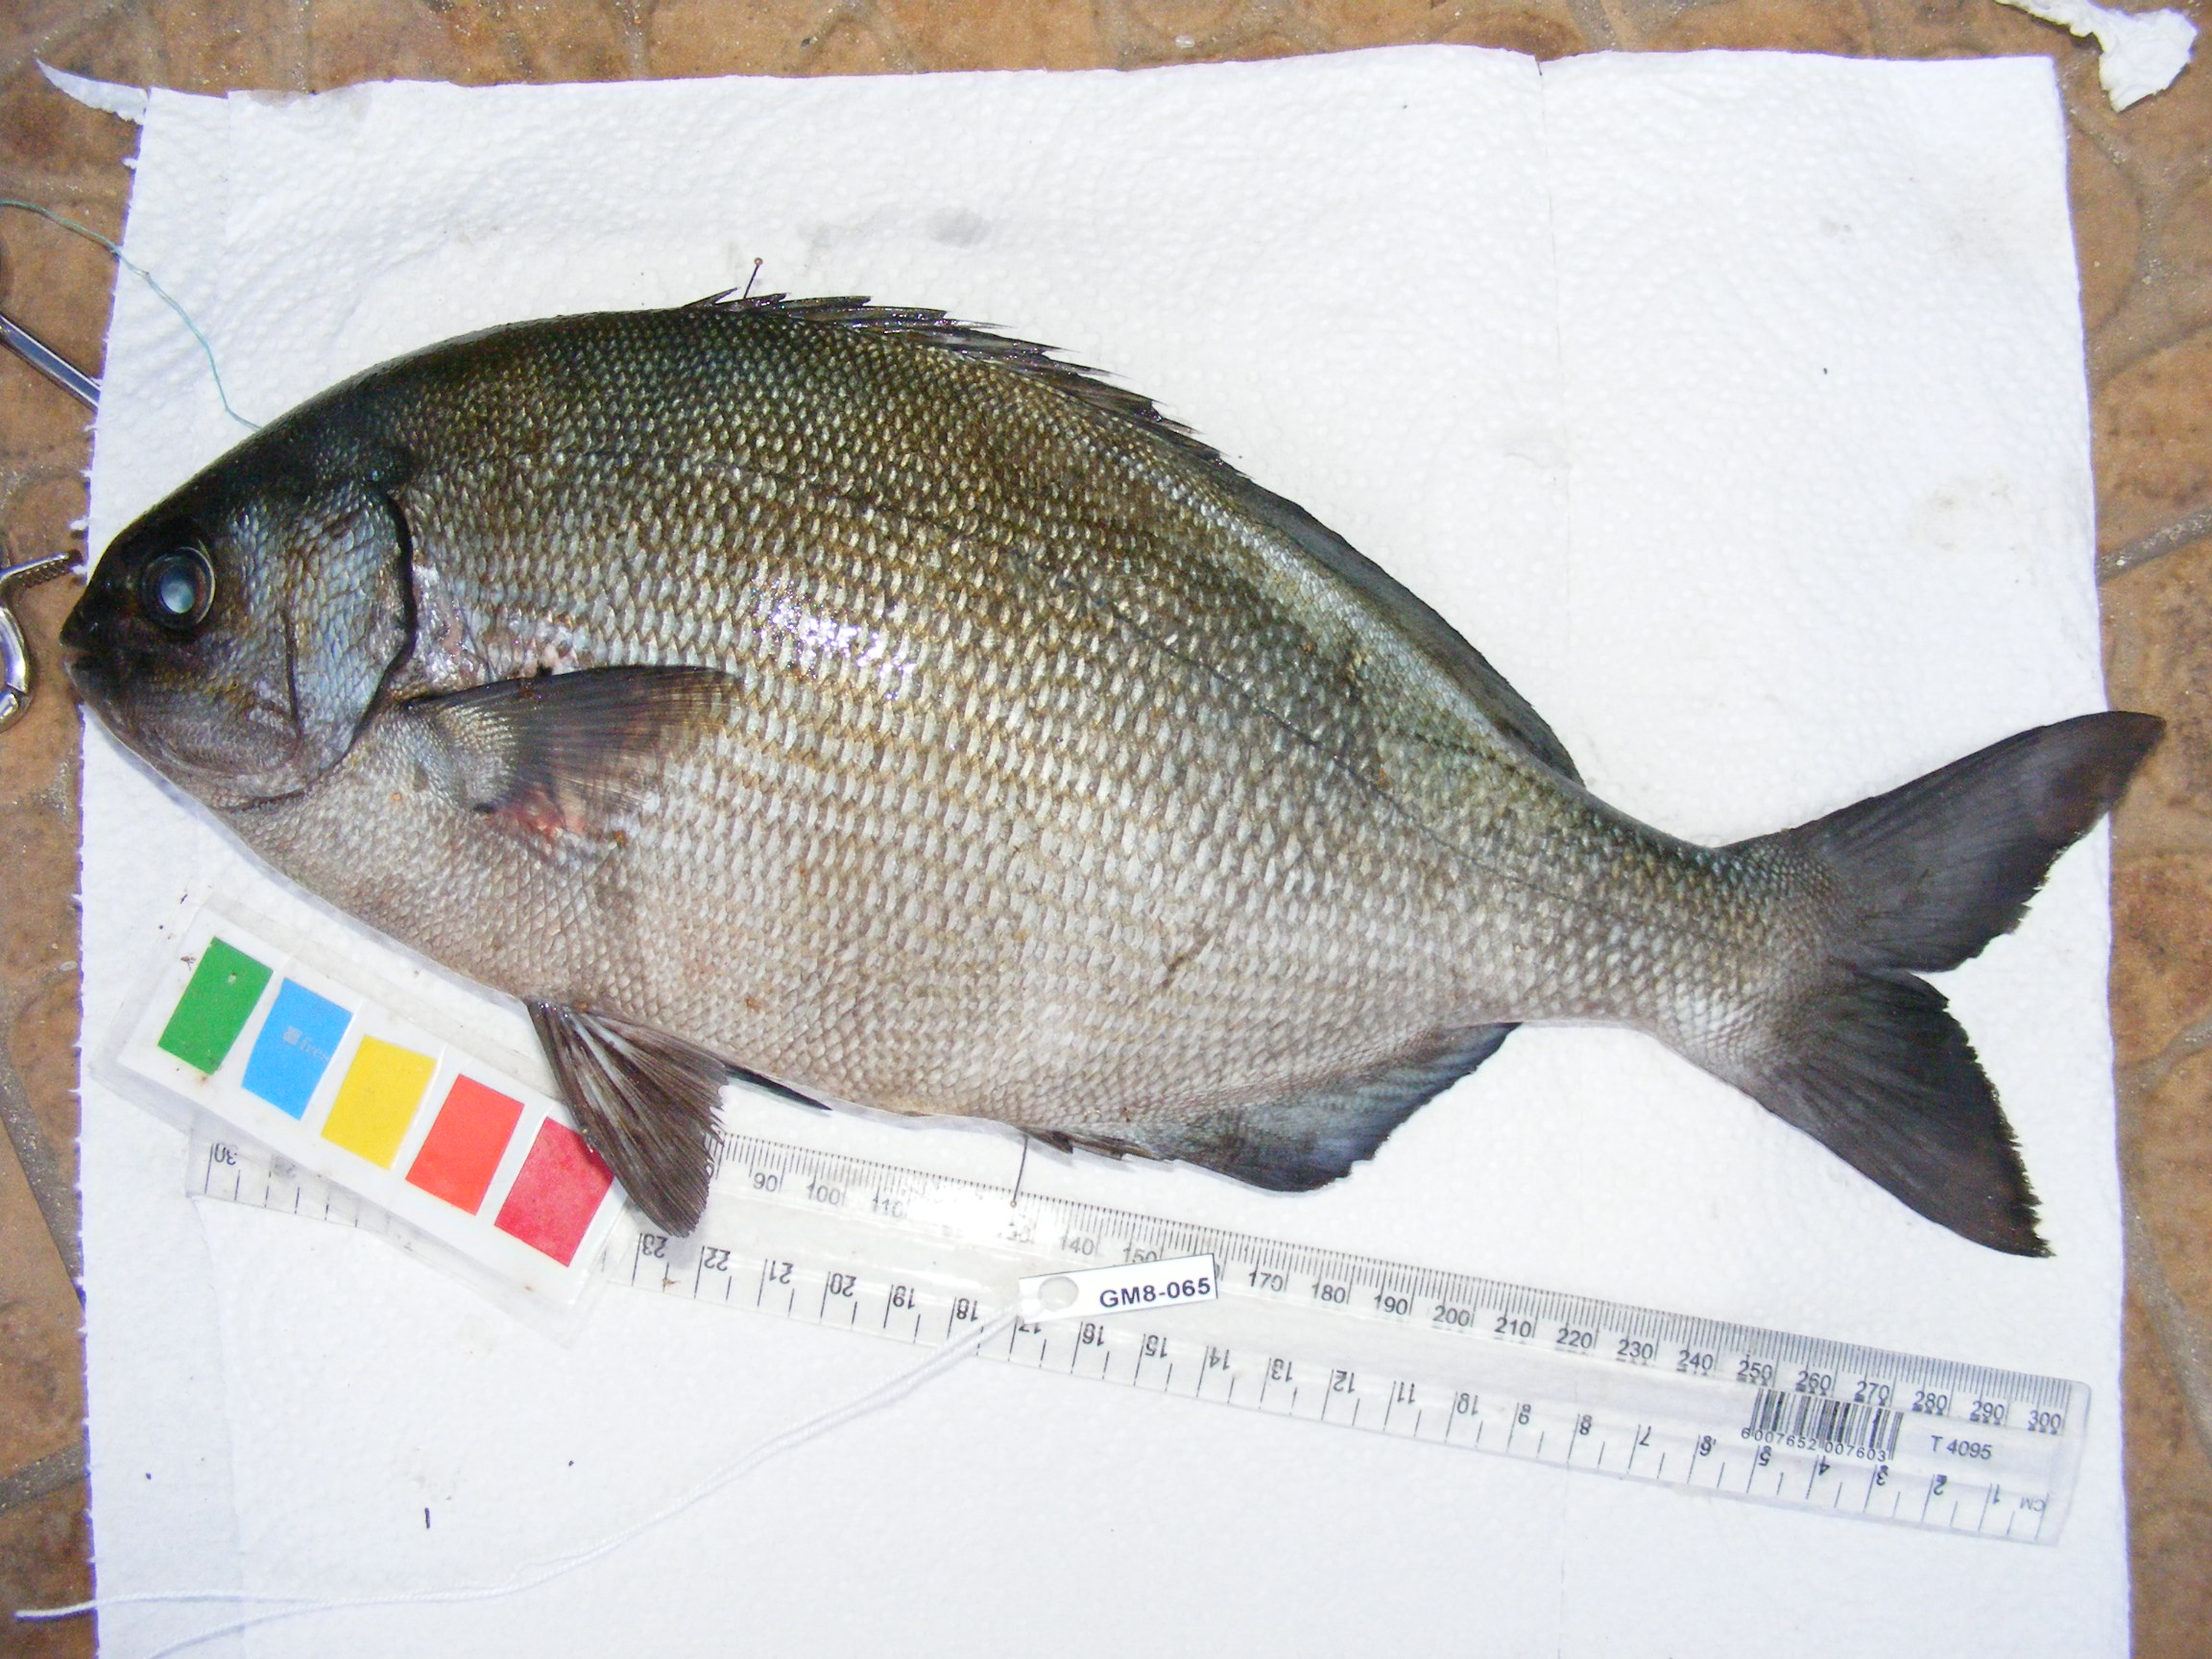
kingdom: Animalia
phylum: Chordata
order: Perciformes
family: Kyphosidae
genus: Kyphosus
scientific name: Kyphosus bigibbus
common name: Brown chub
